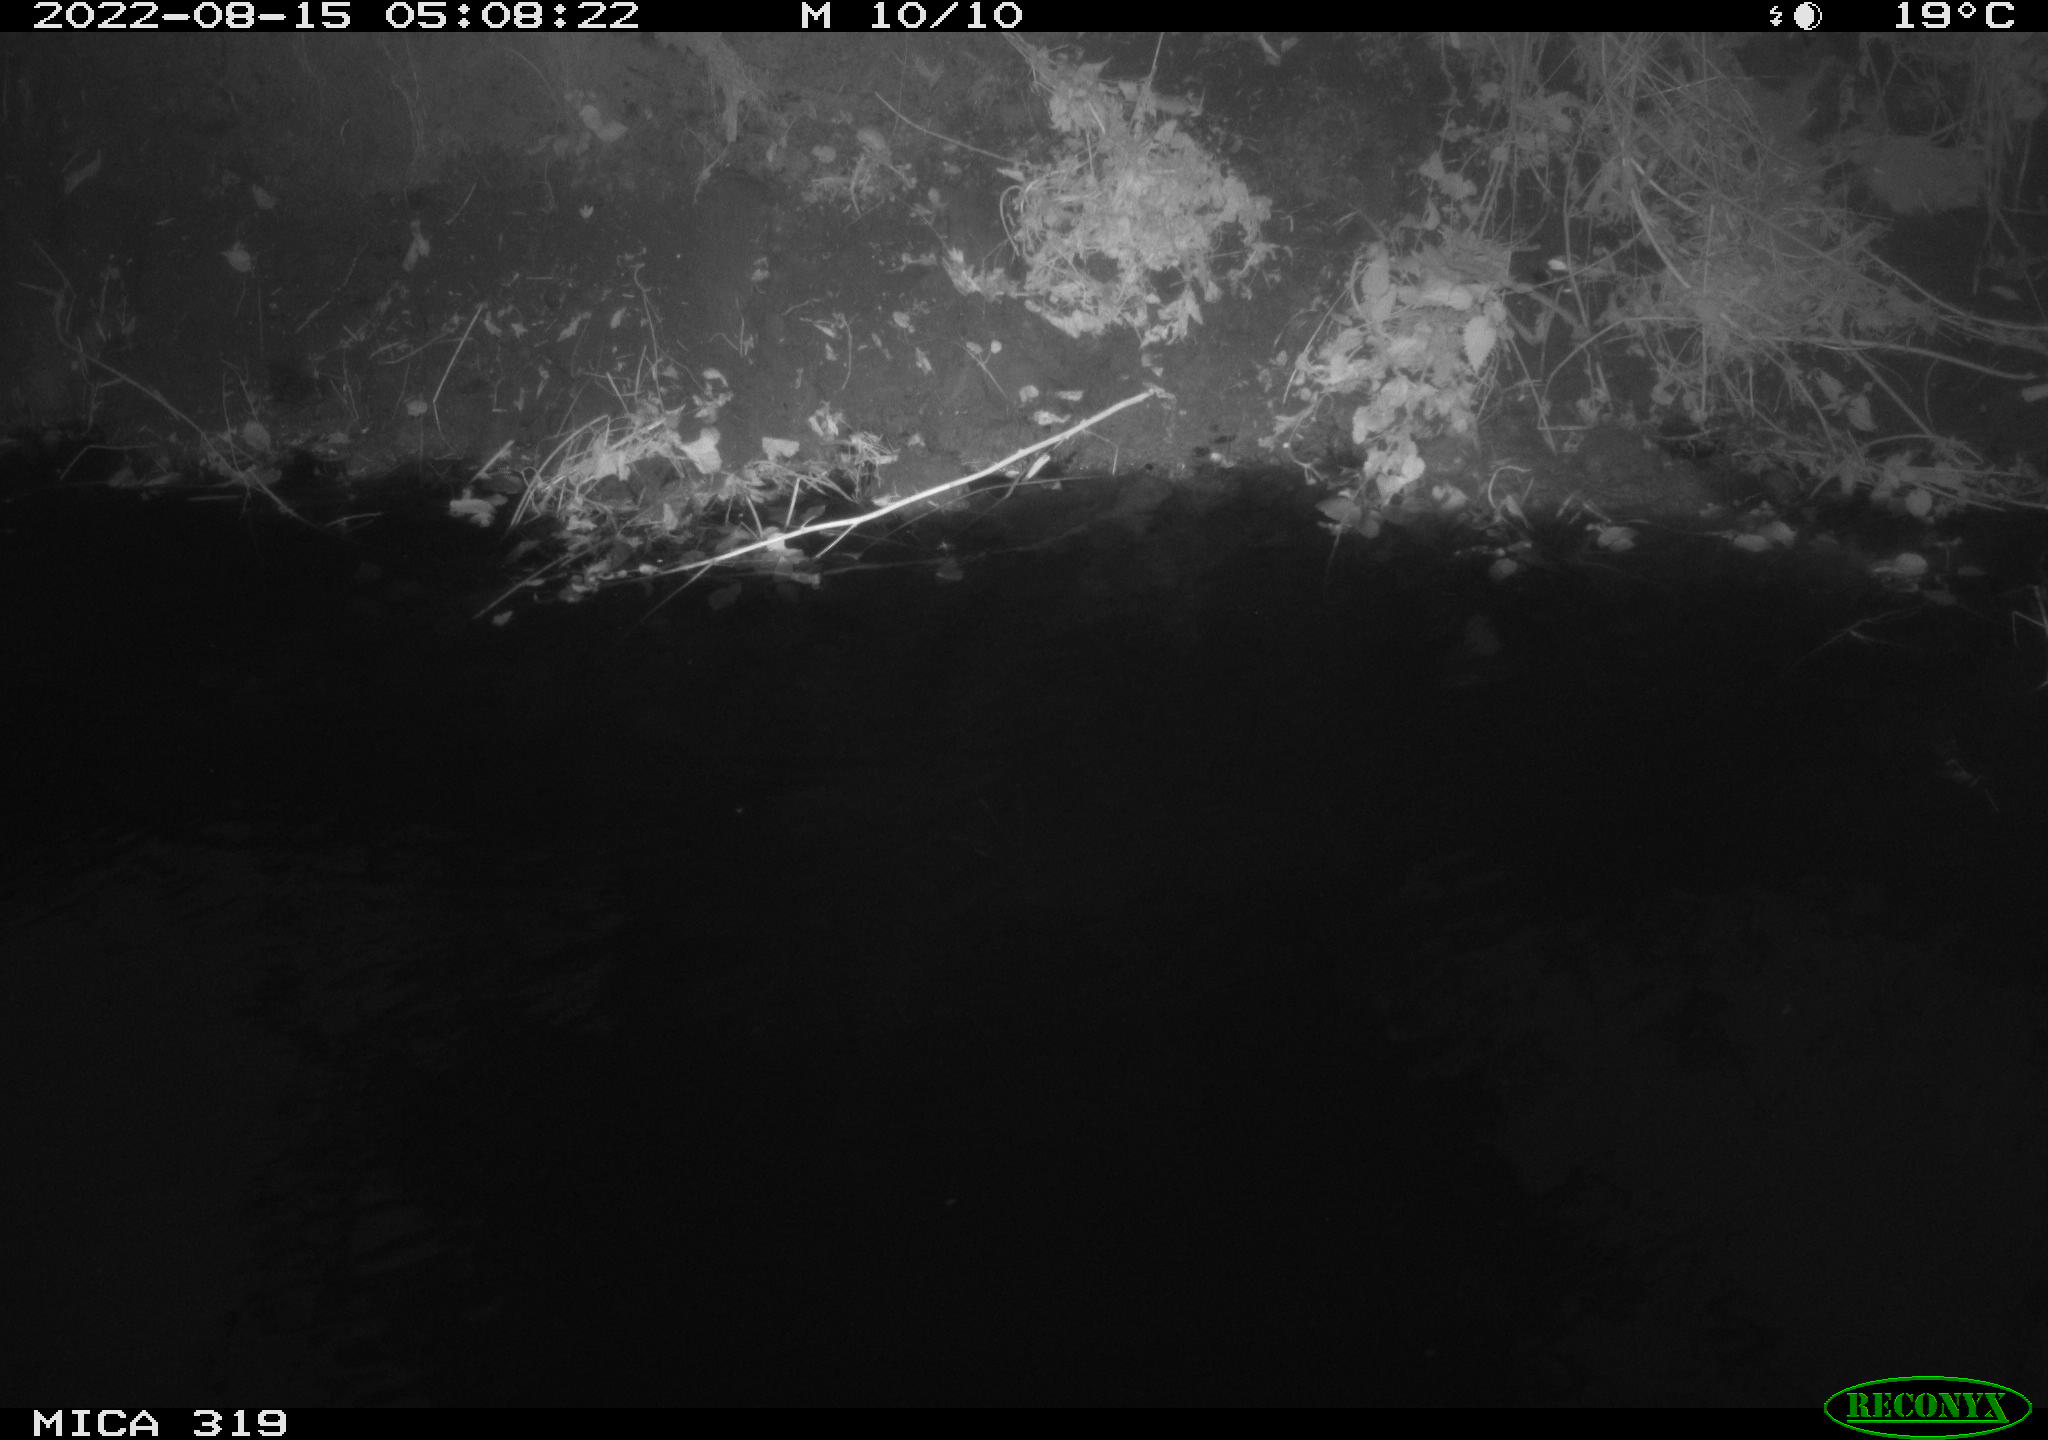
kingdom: Animalia
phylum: Chordata
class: Aves
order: Anseriformes
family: Anatidae
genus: Anas
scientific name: Anas
